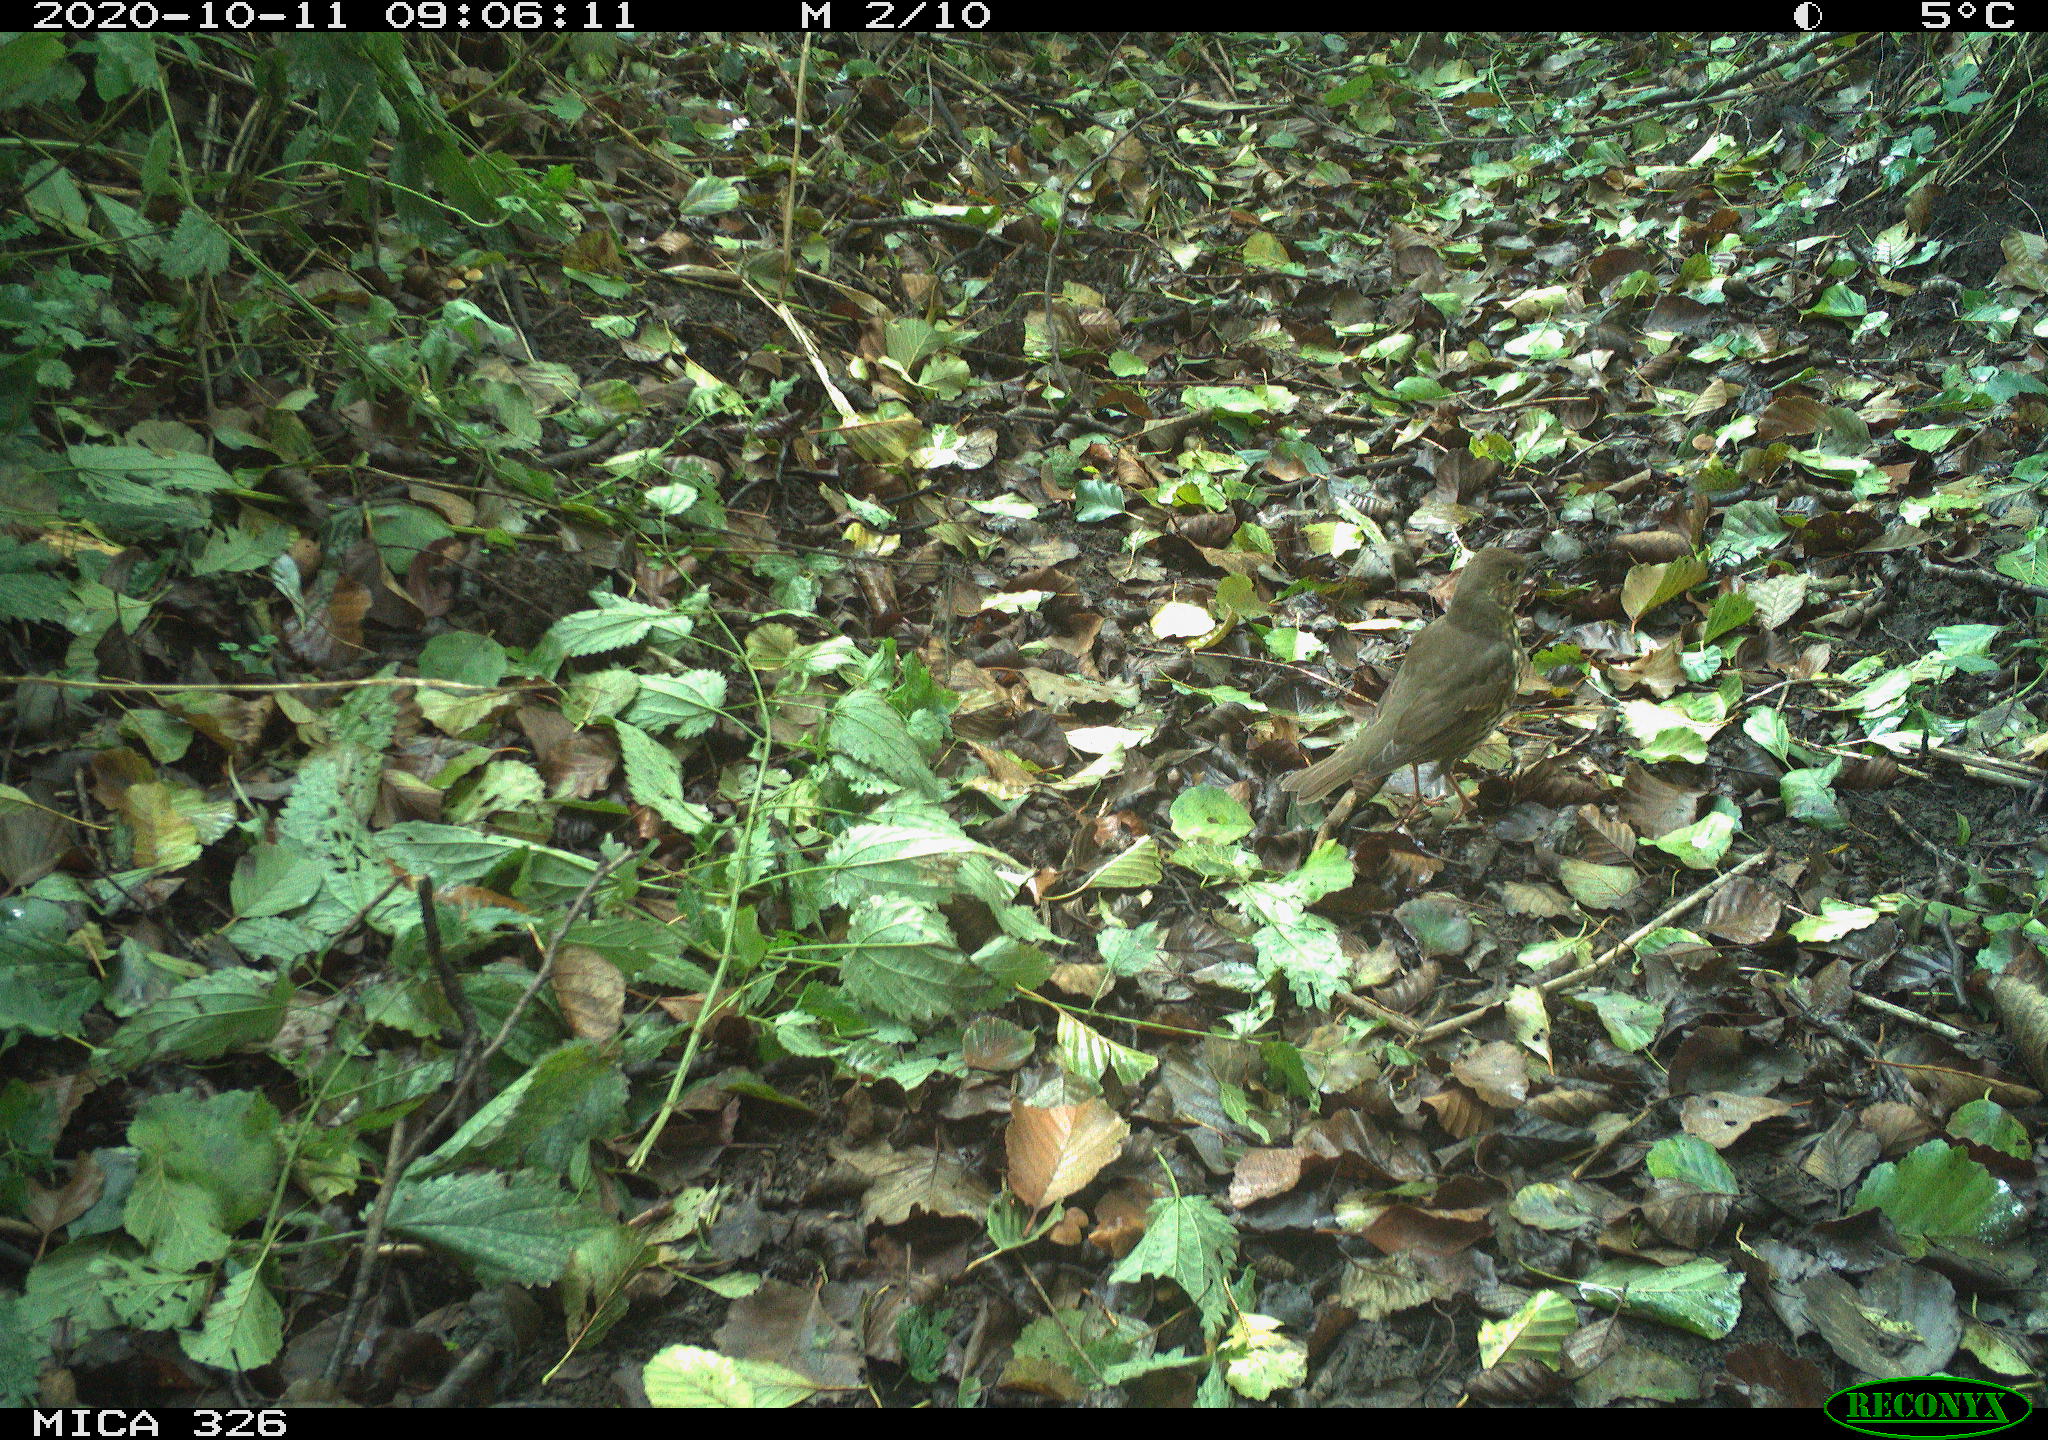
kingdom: Animalia
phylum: Chordata
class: Aves
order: Passeriformes
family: Turdidae
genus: Turdus
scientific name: Turdus philomelos
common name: Song thrush
